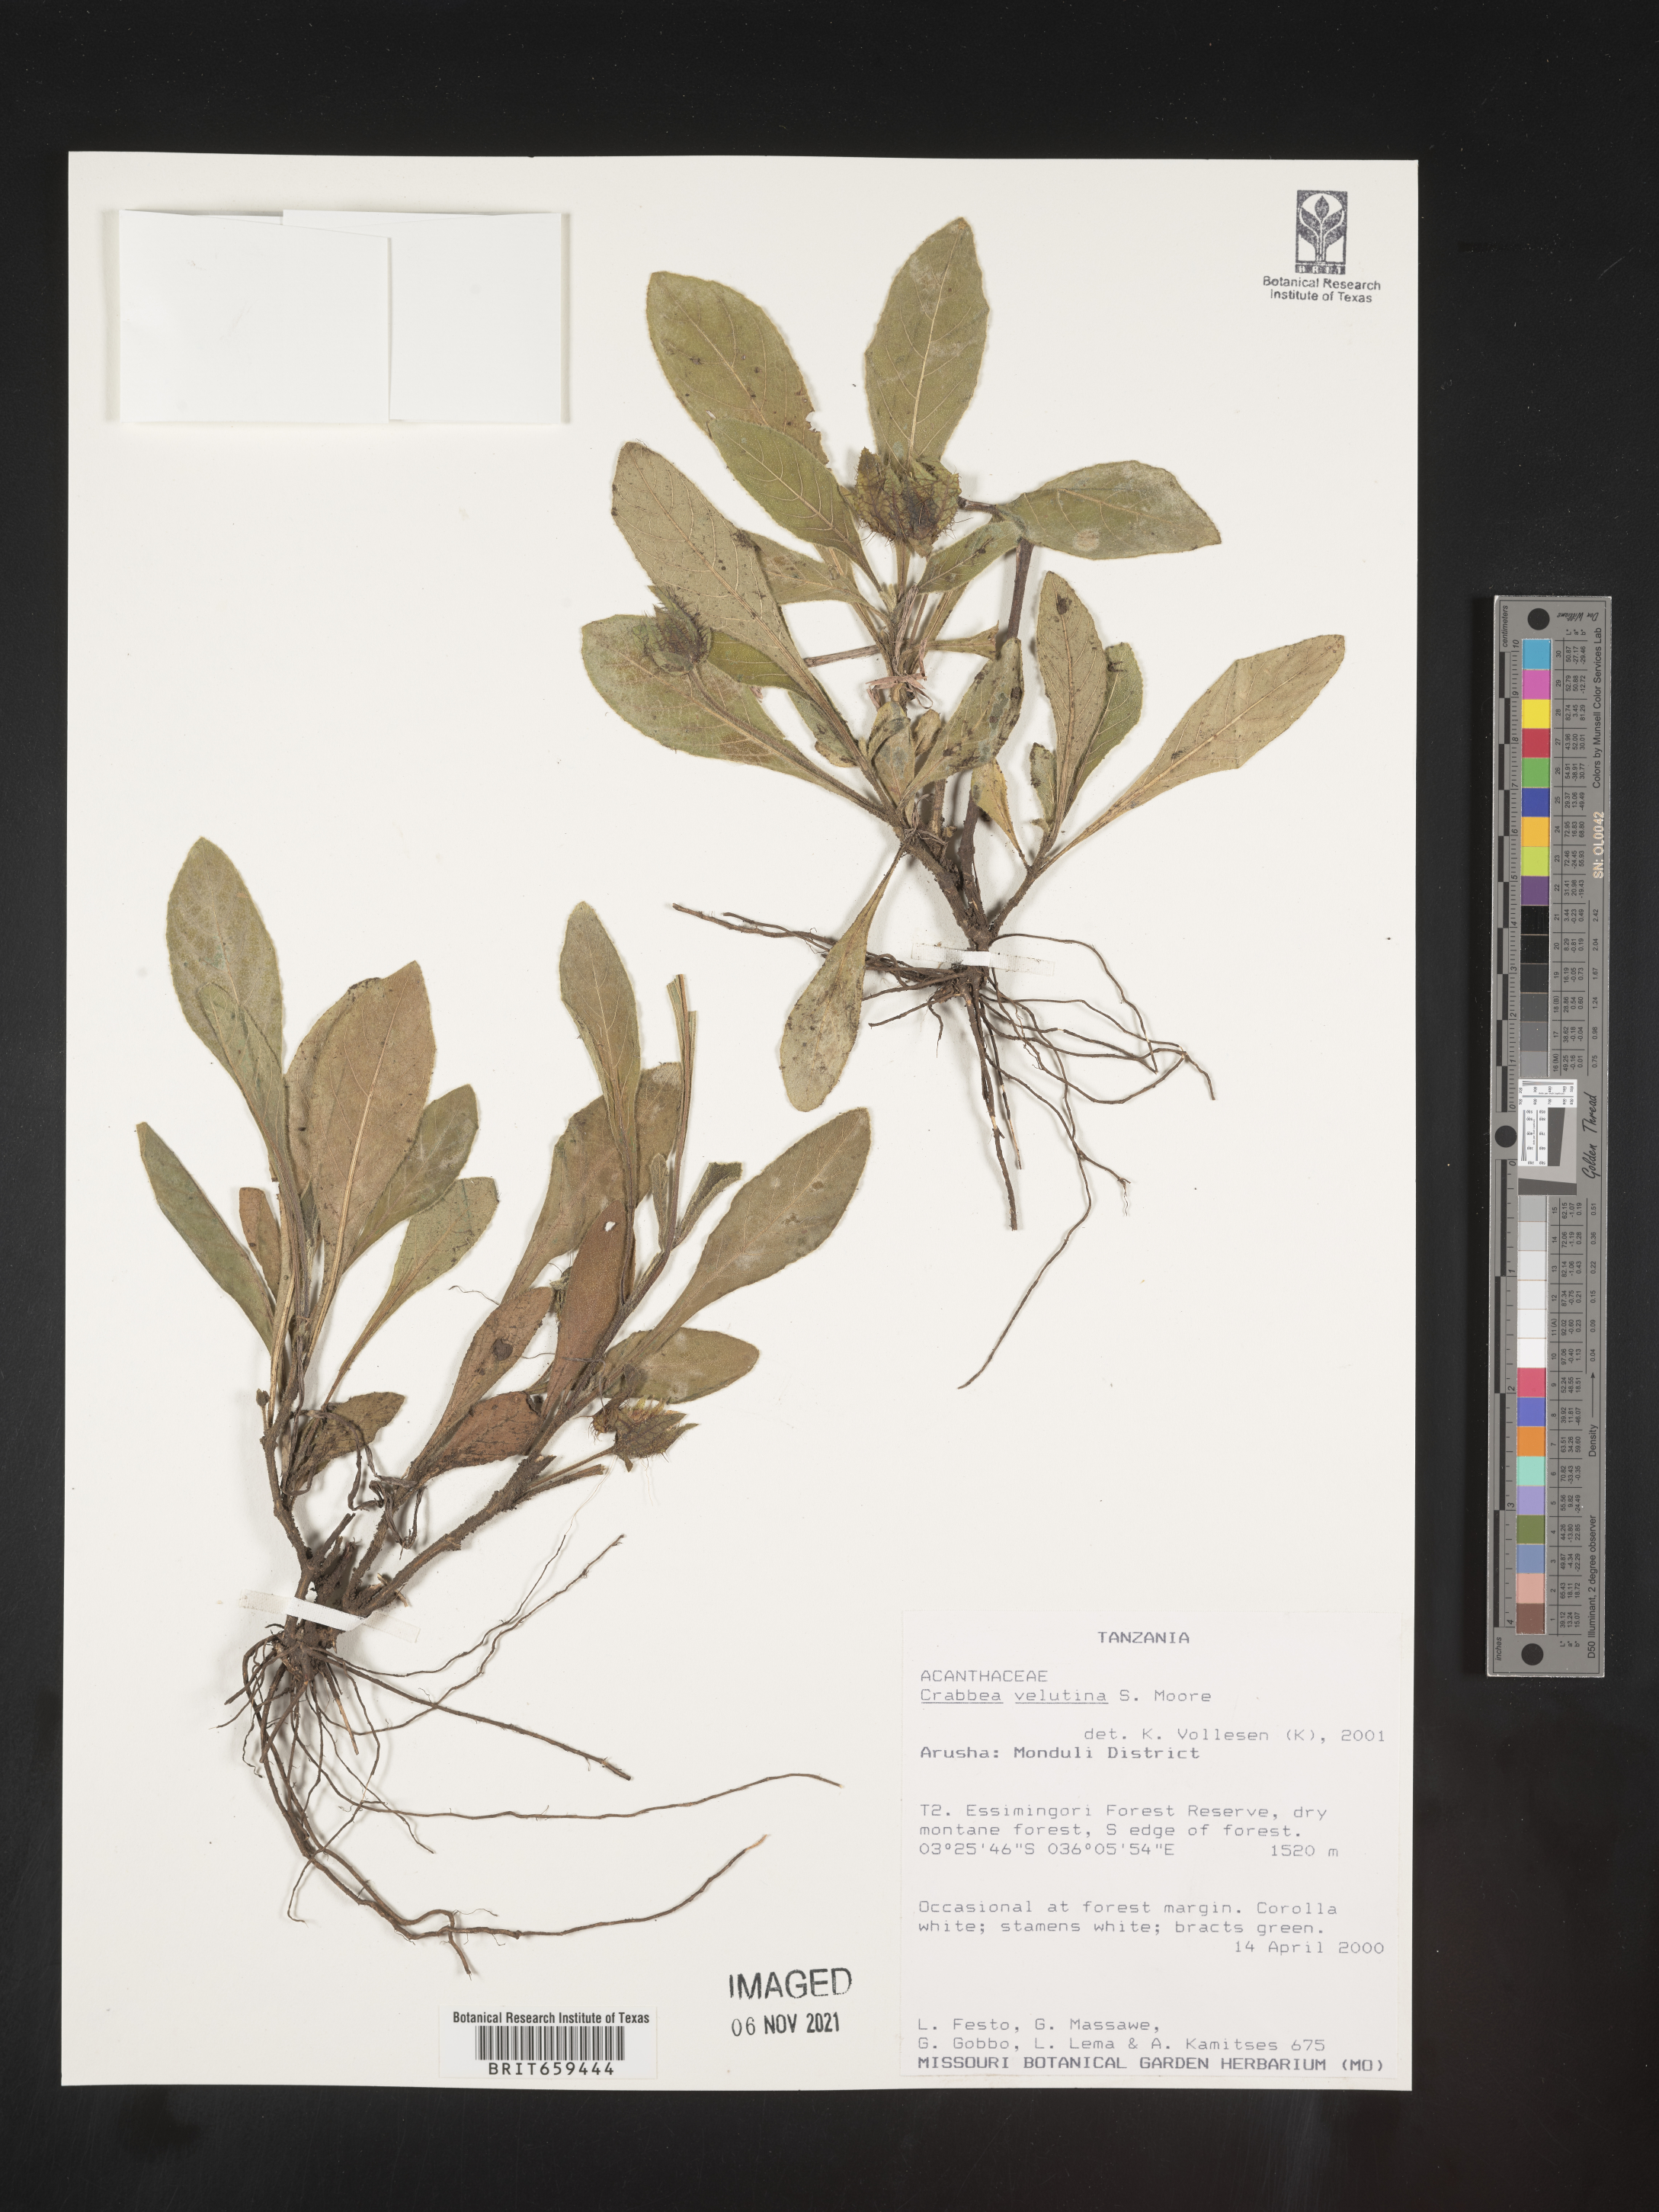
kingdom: Plantae
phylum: Tracheophyta
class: Magnoliopsida
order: Lamiales
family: Acanthaceae
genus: Crabbea
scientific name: Crabbea velutina
